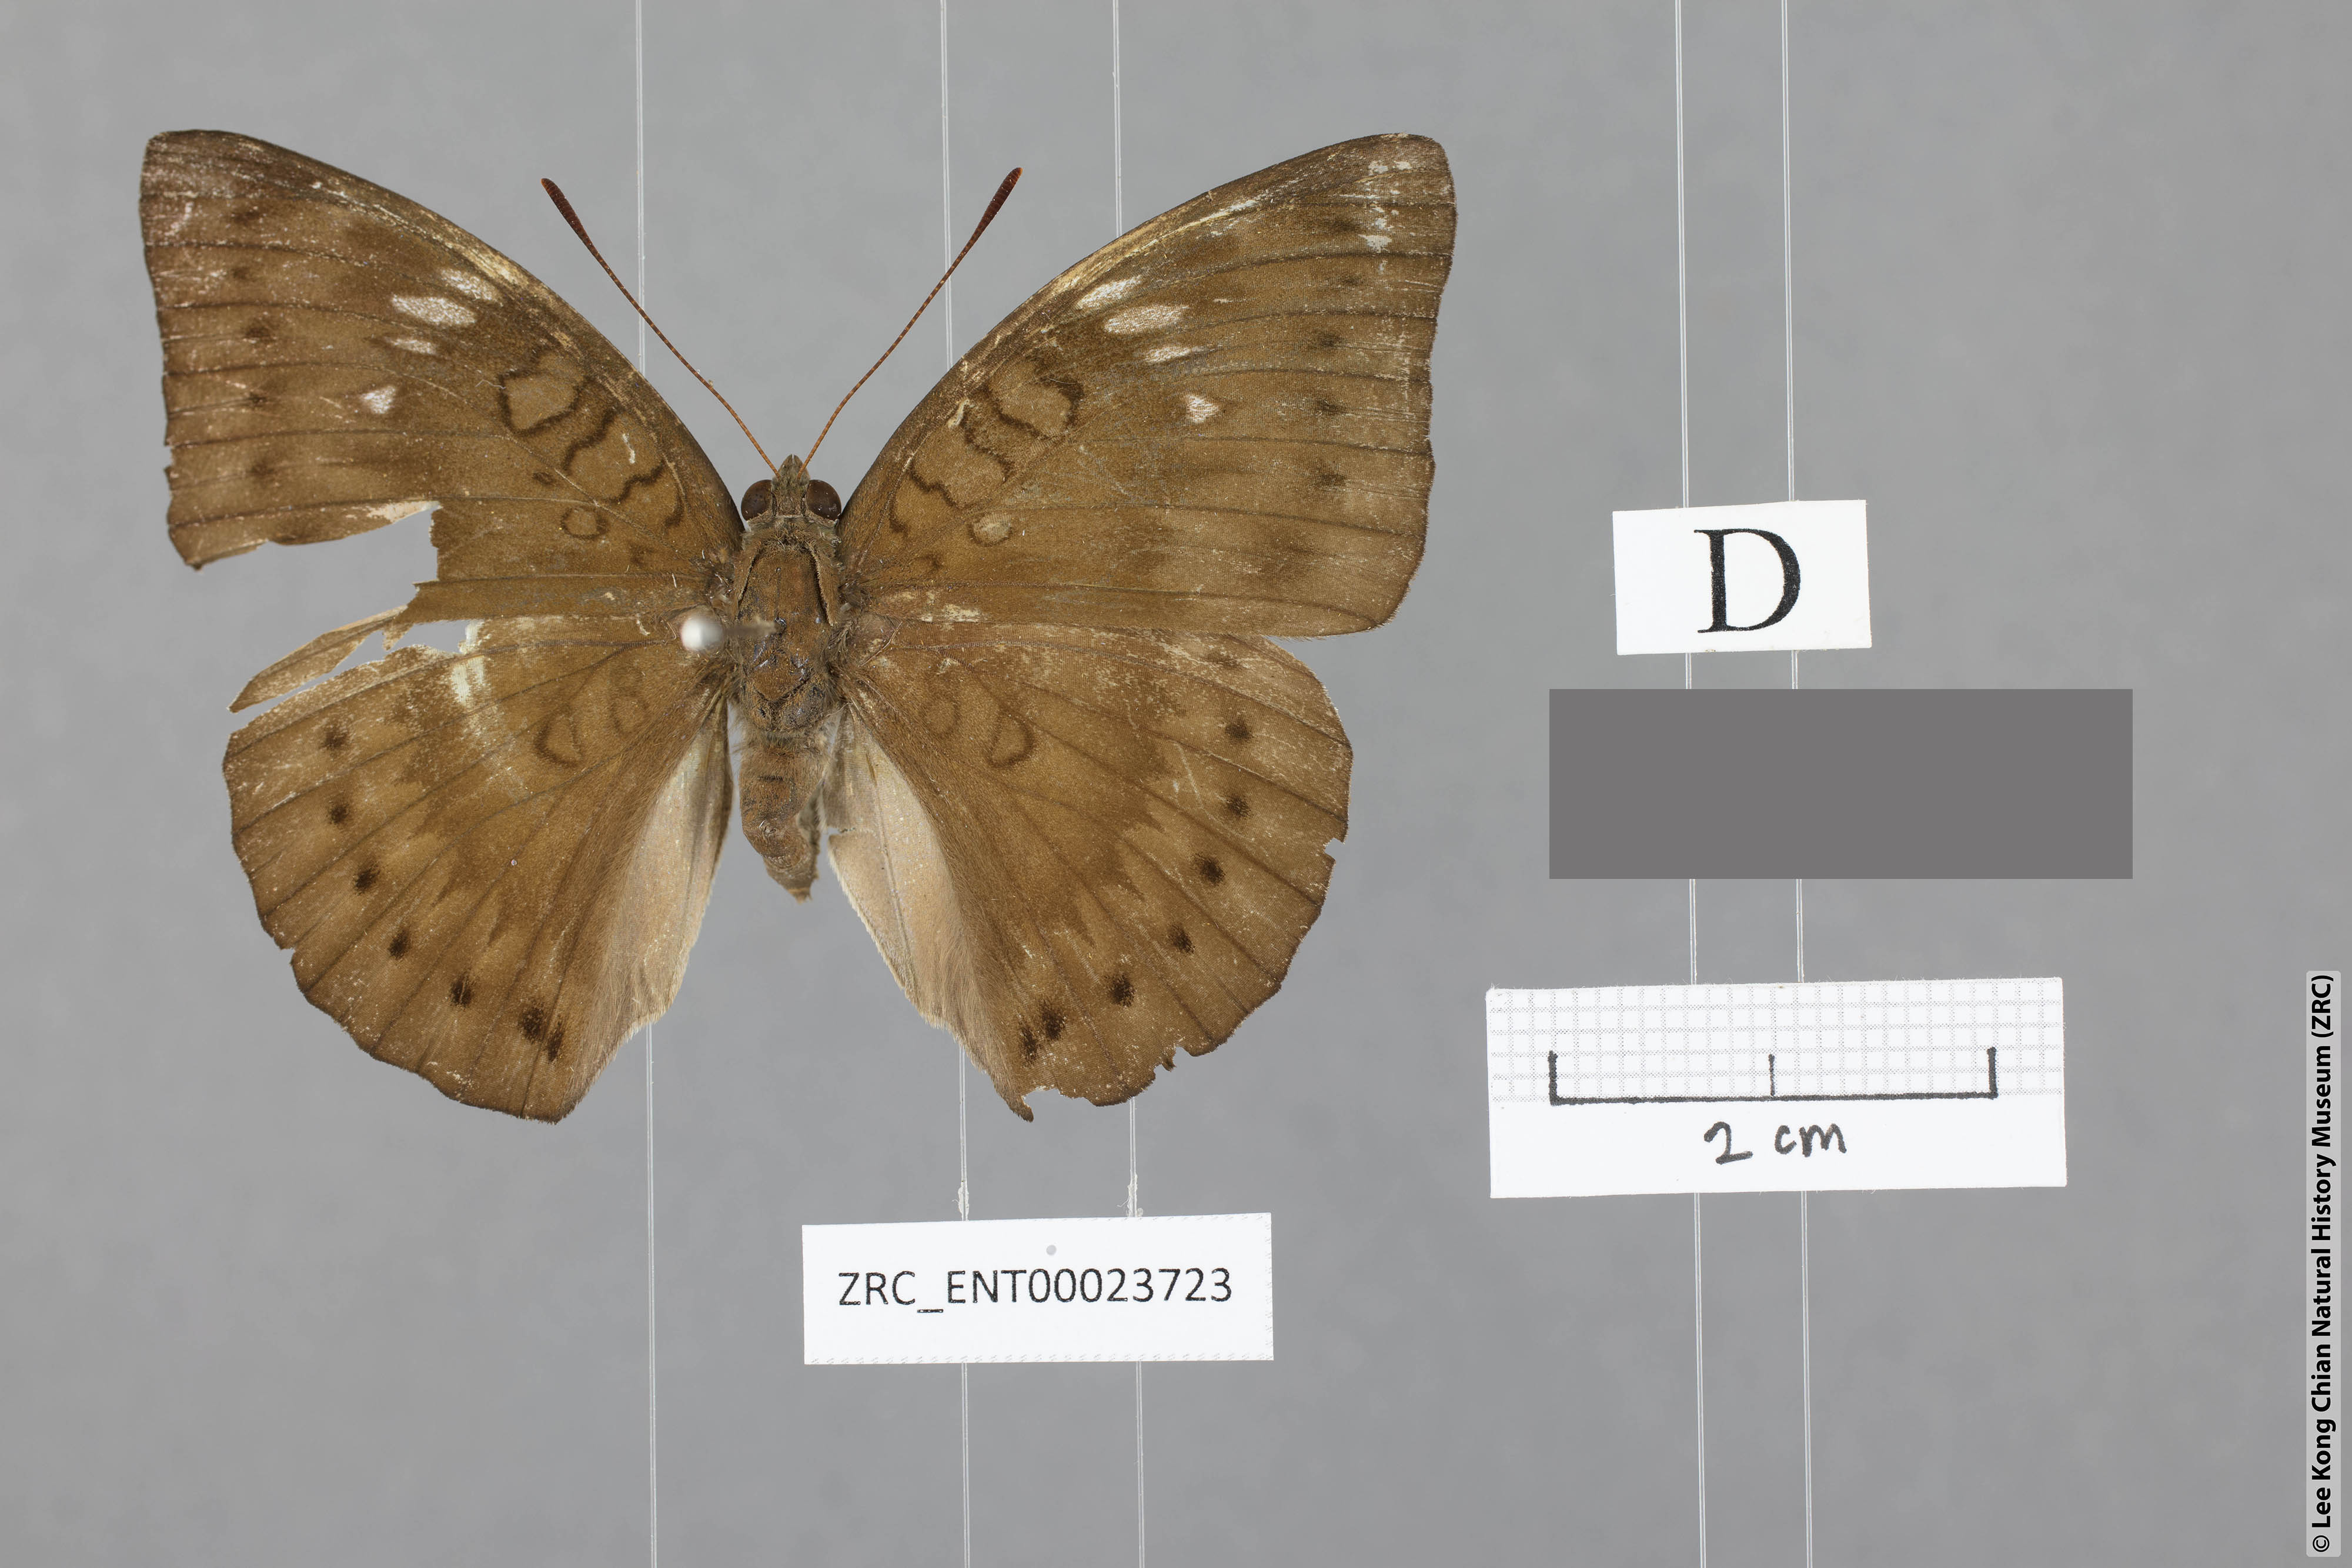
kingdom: Animalia
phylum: Arthropoda
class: Insecta
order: Lepidoptera
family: Nymphalidae
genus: Euthalia
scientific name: Euthalia merta
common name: White tipped baron
